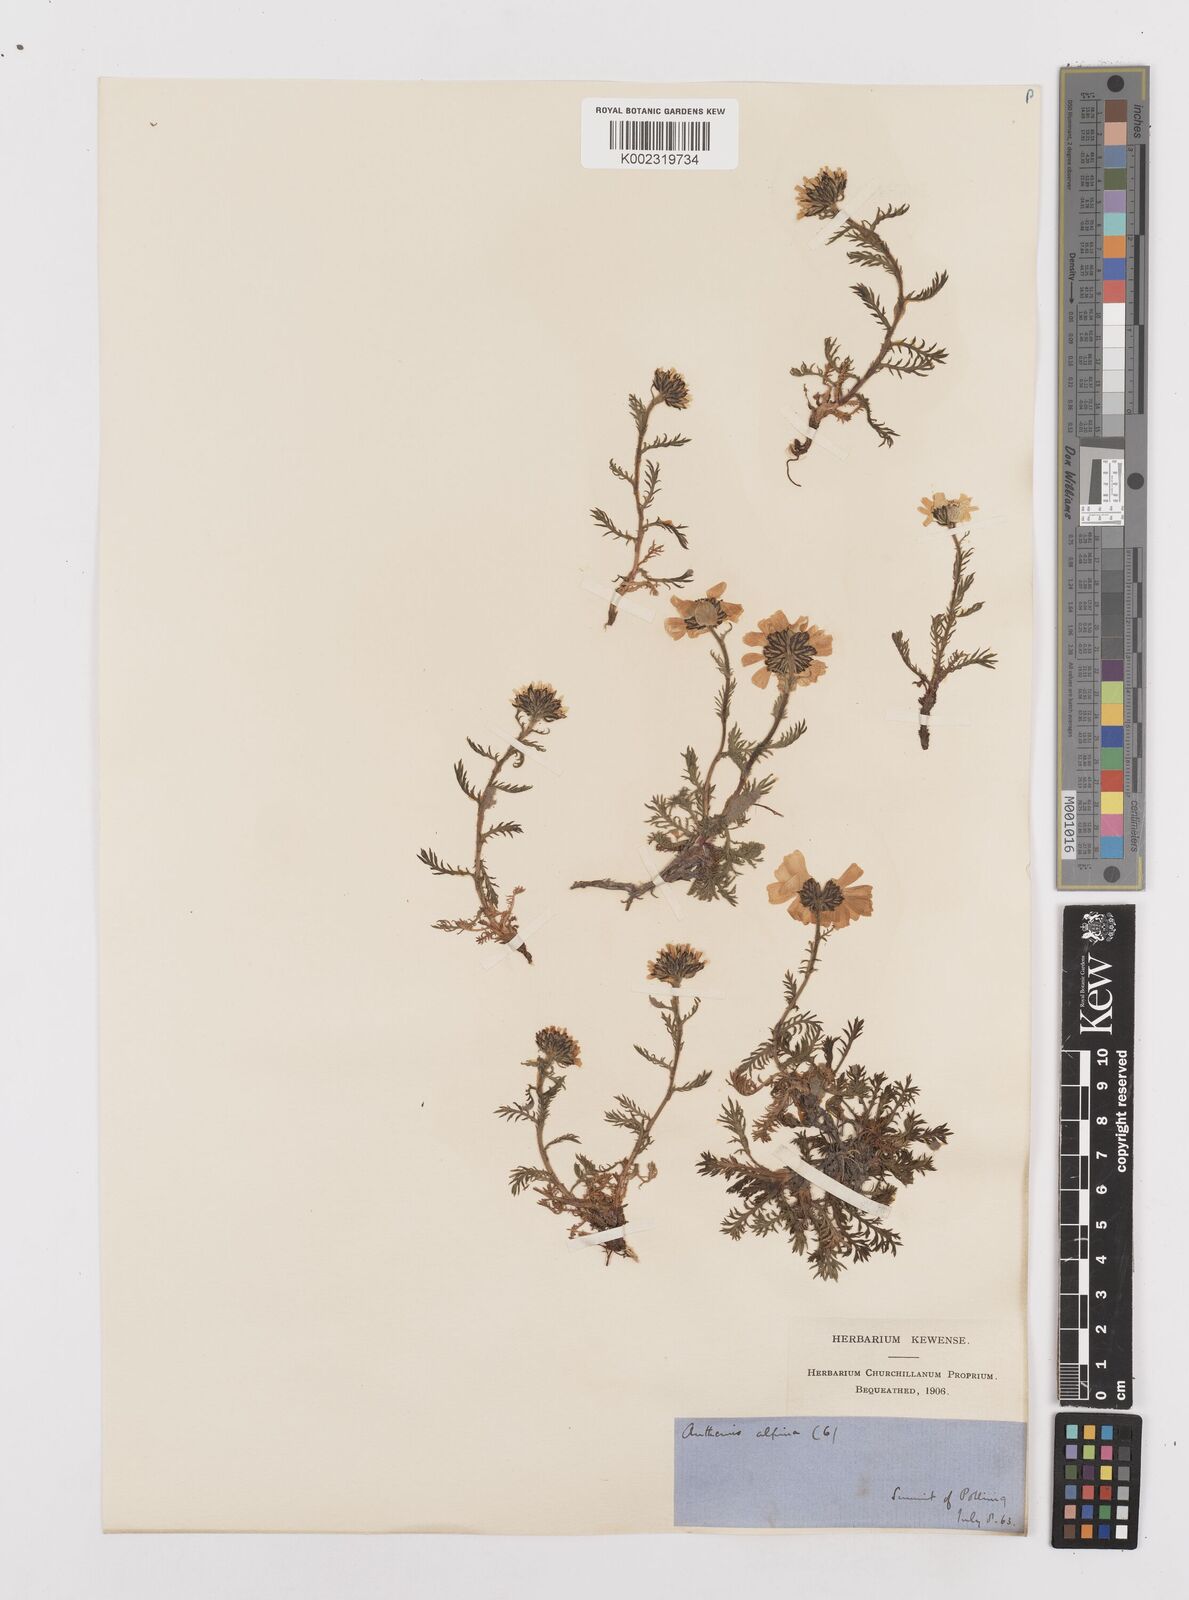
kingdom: Plantae
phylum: Tracheophyta
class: Magnoliopsida
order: Asterales
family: Asteraceae
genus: Achillea
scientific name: Achillea oxyloba
